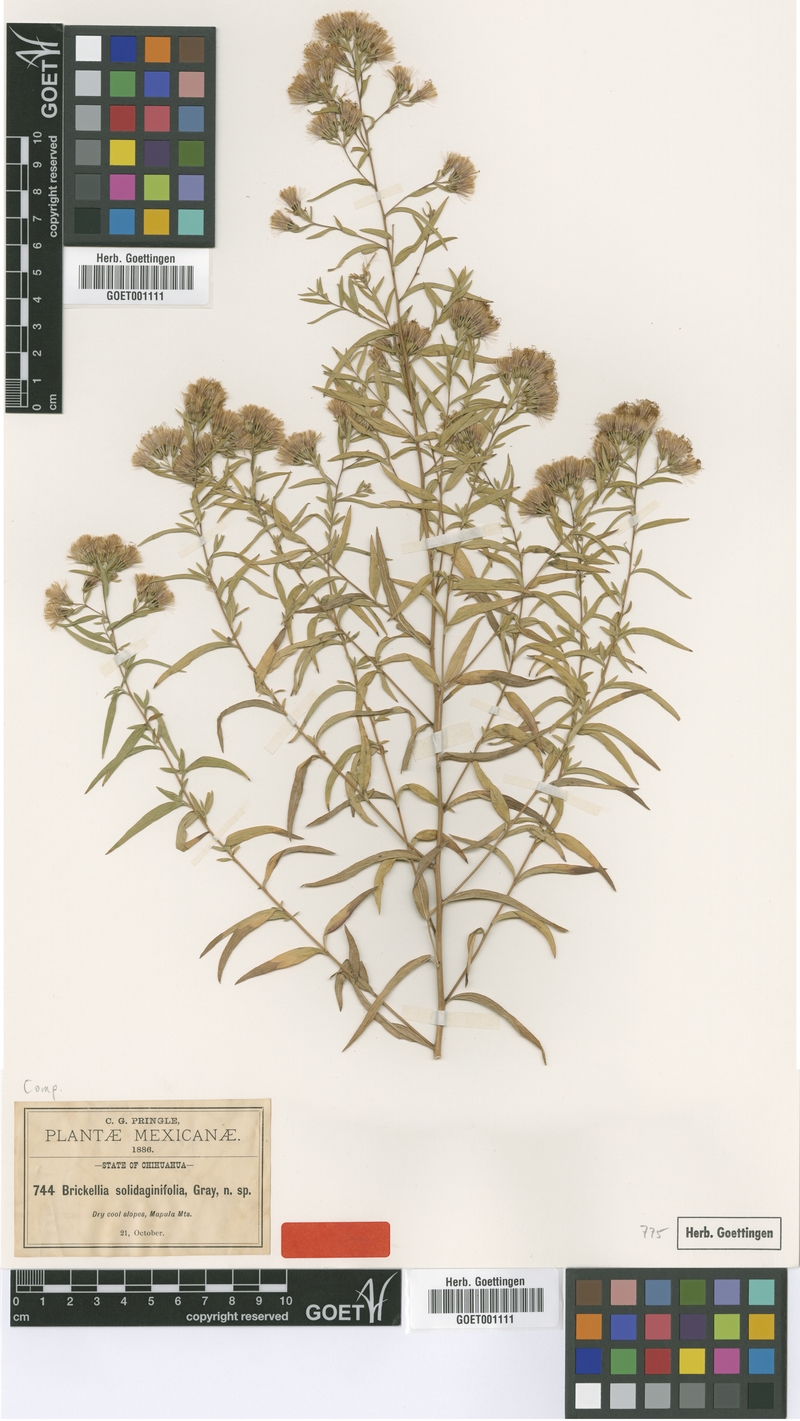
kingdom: Plantae
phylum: Tracheophyta
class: Magnoliopsida
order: Asterales
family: Asteraceae
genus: Asanthus
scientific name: Asanthus solidaginifolius
